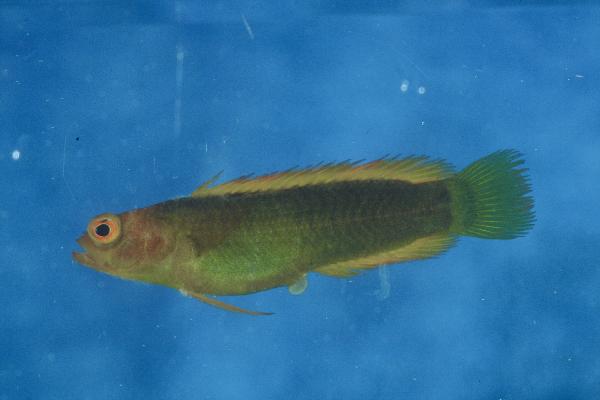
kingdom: Animalia
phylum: Chordata
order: Perciformes
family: Pseudochromidae
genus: Chlidichthys
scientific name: Chlidichthys pembae
